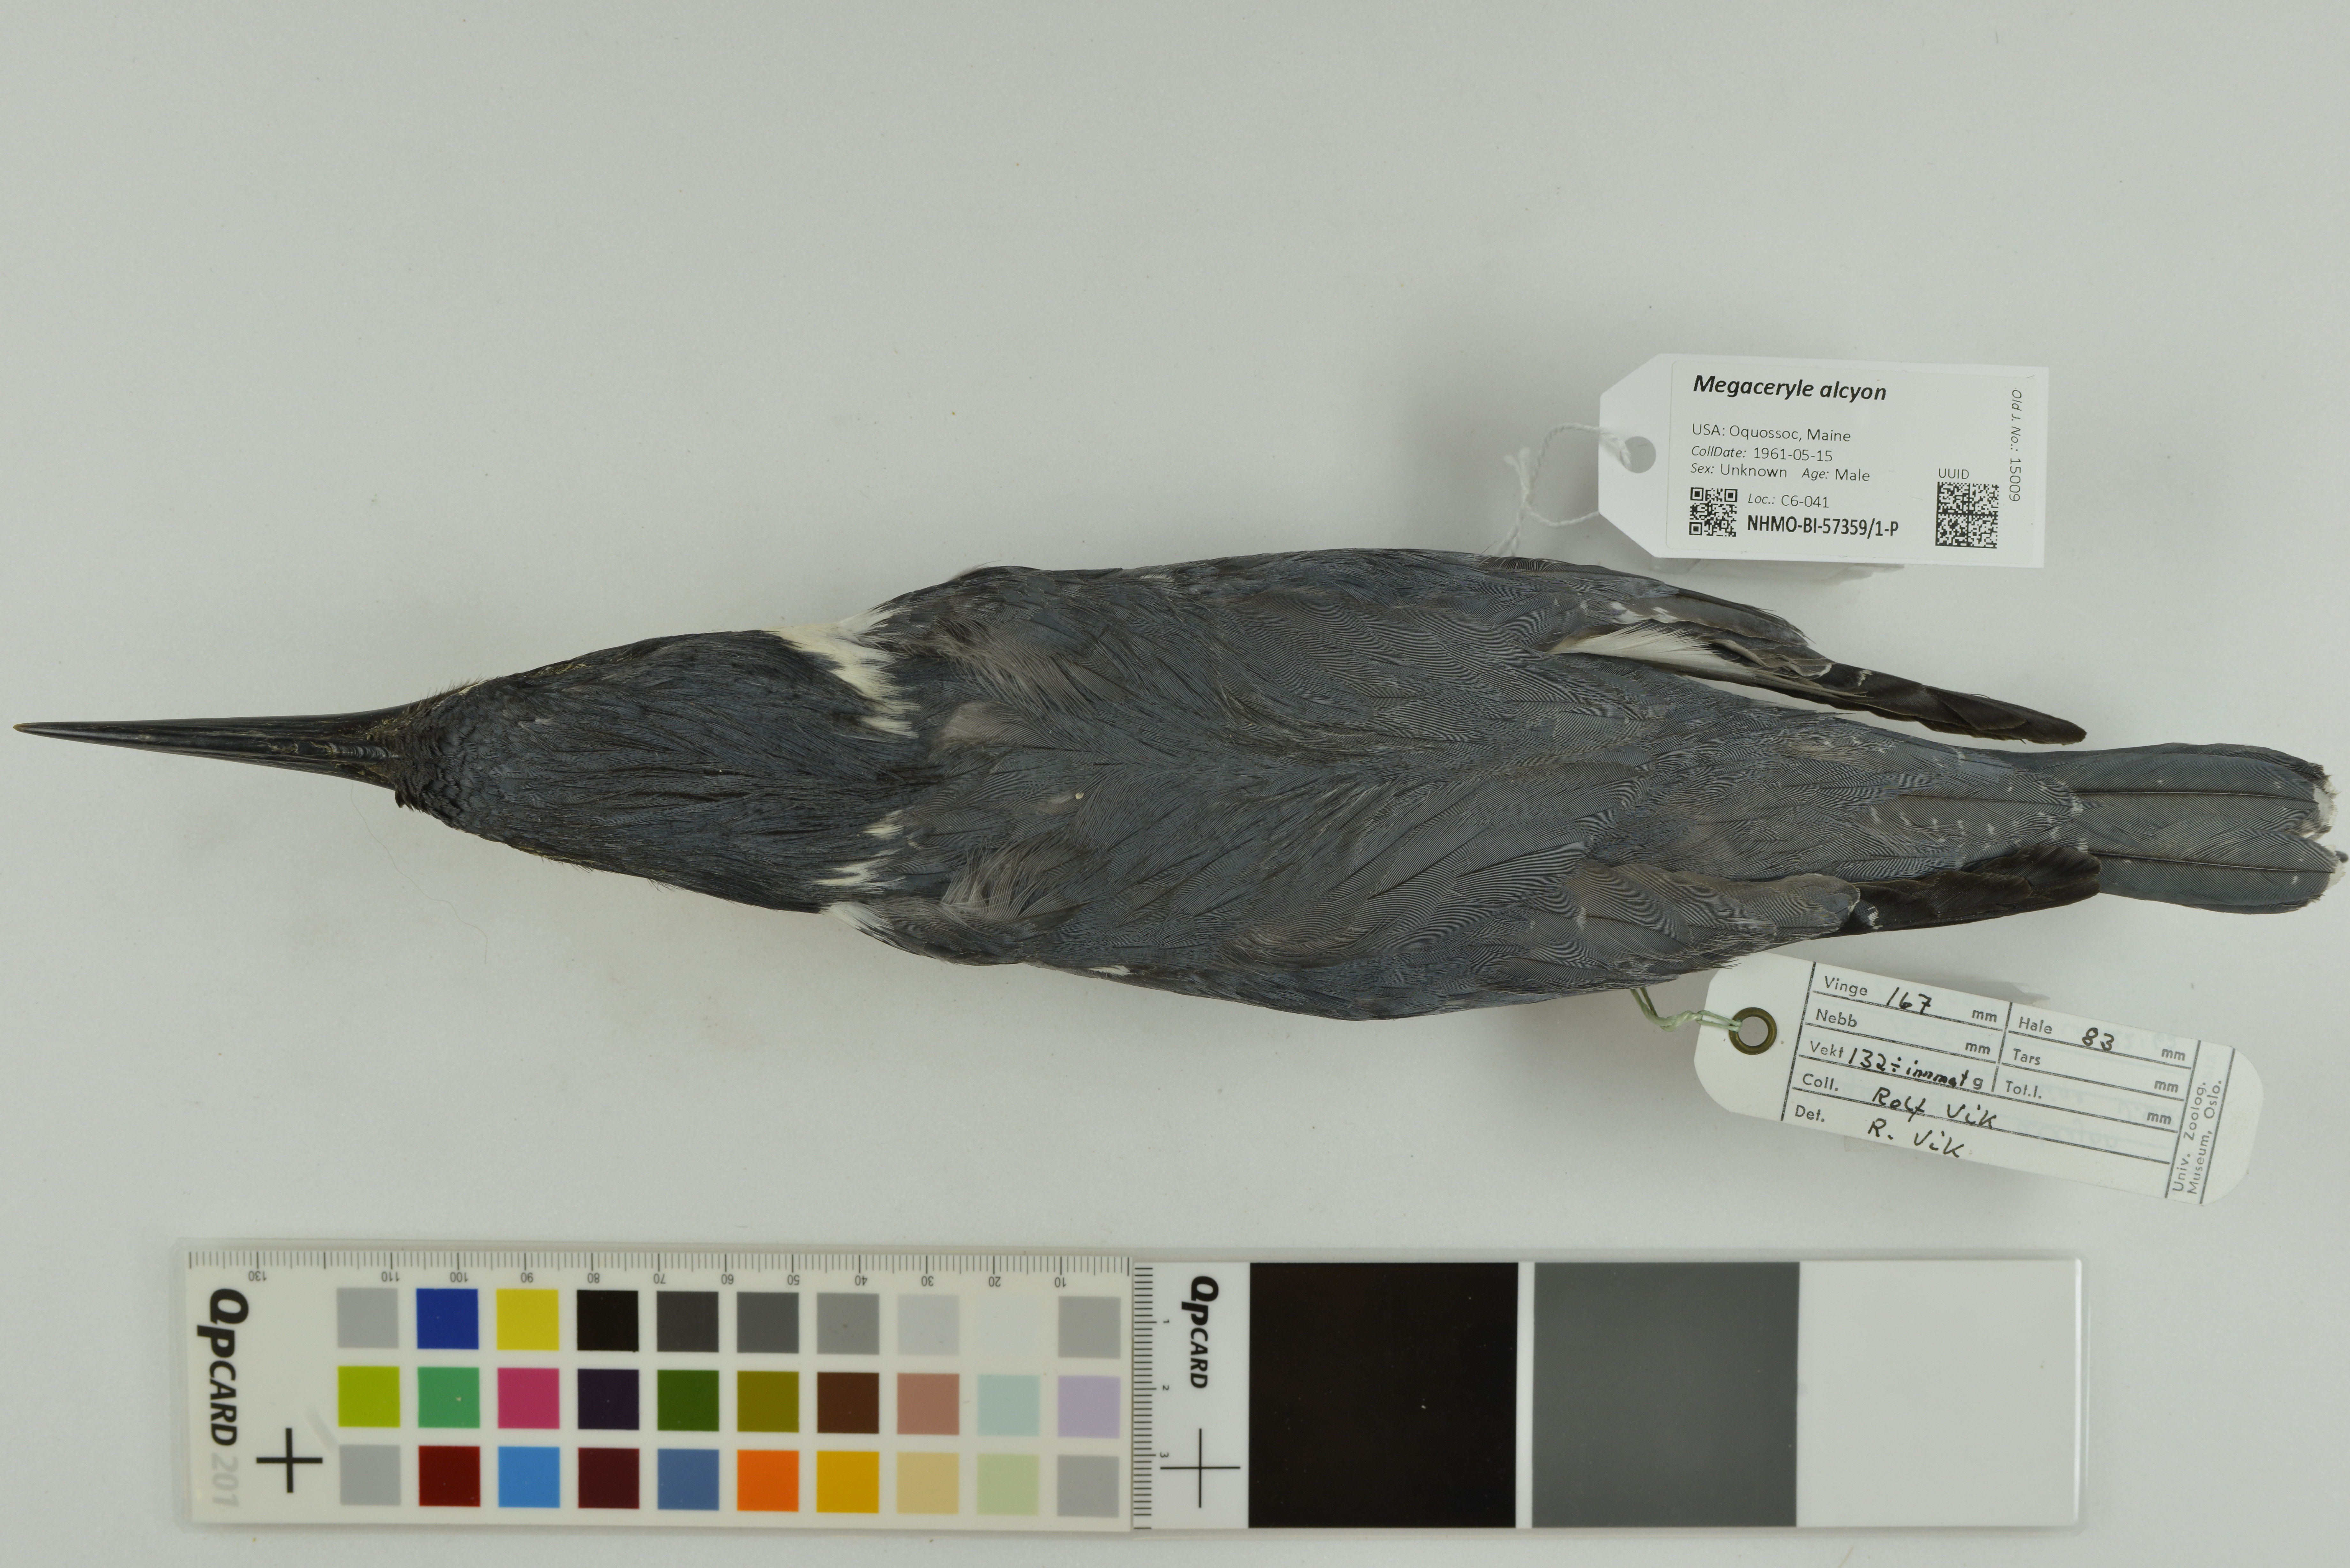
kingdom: Animalia
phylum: Chordata
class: Aves
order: Coraciiformes
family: Alcedinidae
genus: Megaceryle
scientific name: Megaceryle alcyon
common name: Belted kingfisher
